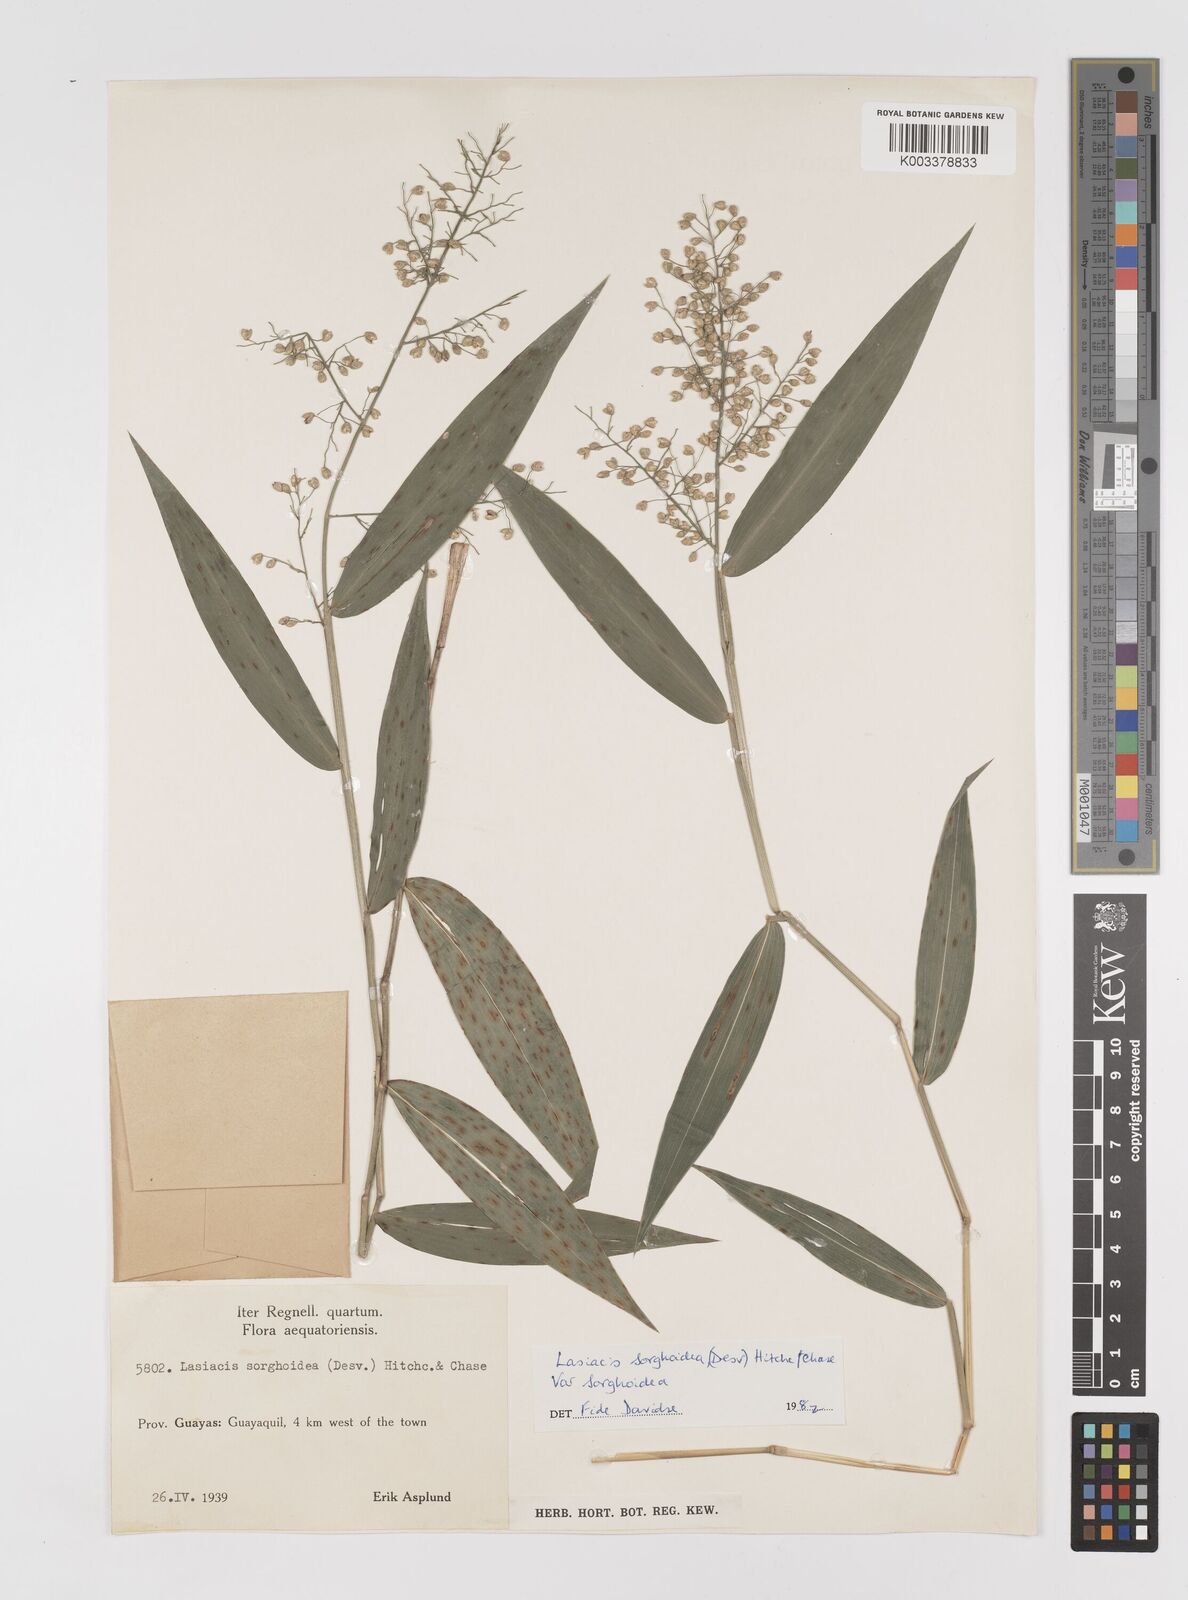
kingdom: Plantae
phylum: Tracheophyta
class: Liliopsida
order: Poales
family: Poaceae
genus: Lasiacis
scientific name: Lasiacis maculata
